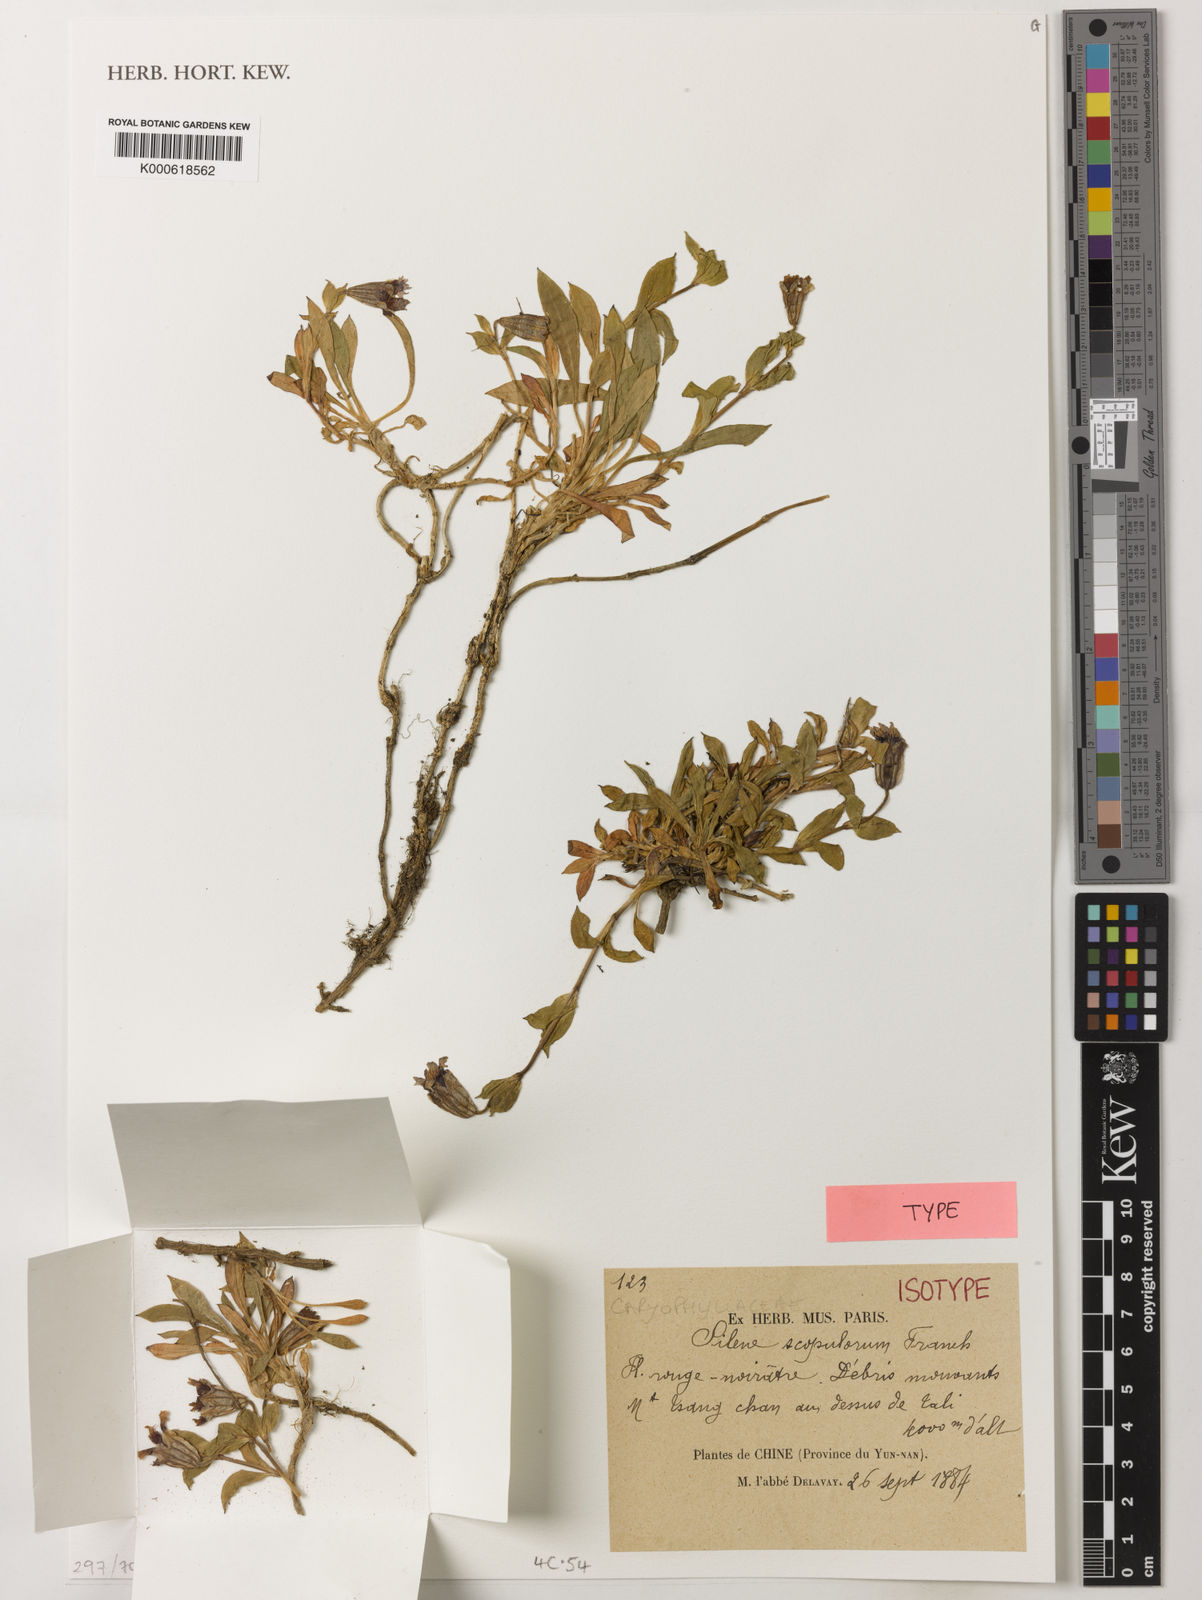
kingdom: Plantae
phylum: Tracheophyta
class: Magnoliopsida
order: Caryophyllales
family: Caryophyllaceae
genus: Silene
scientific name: Silene scopulorum
